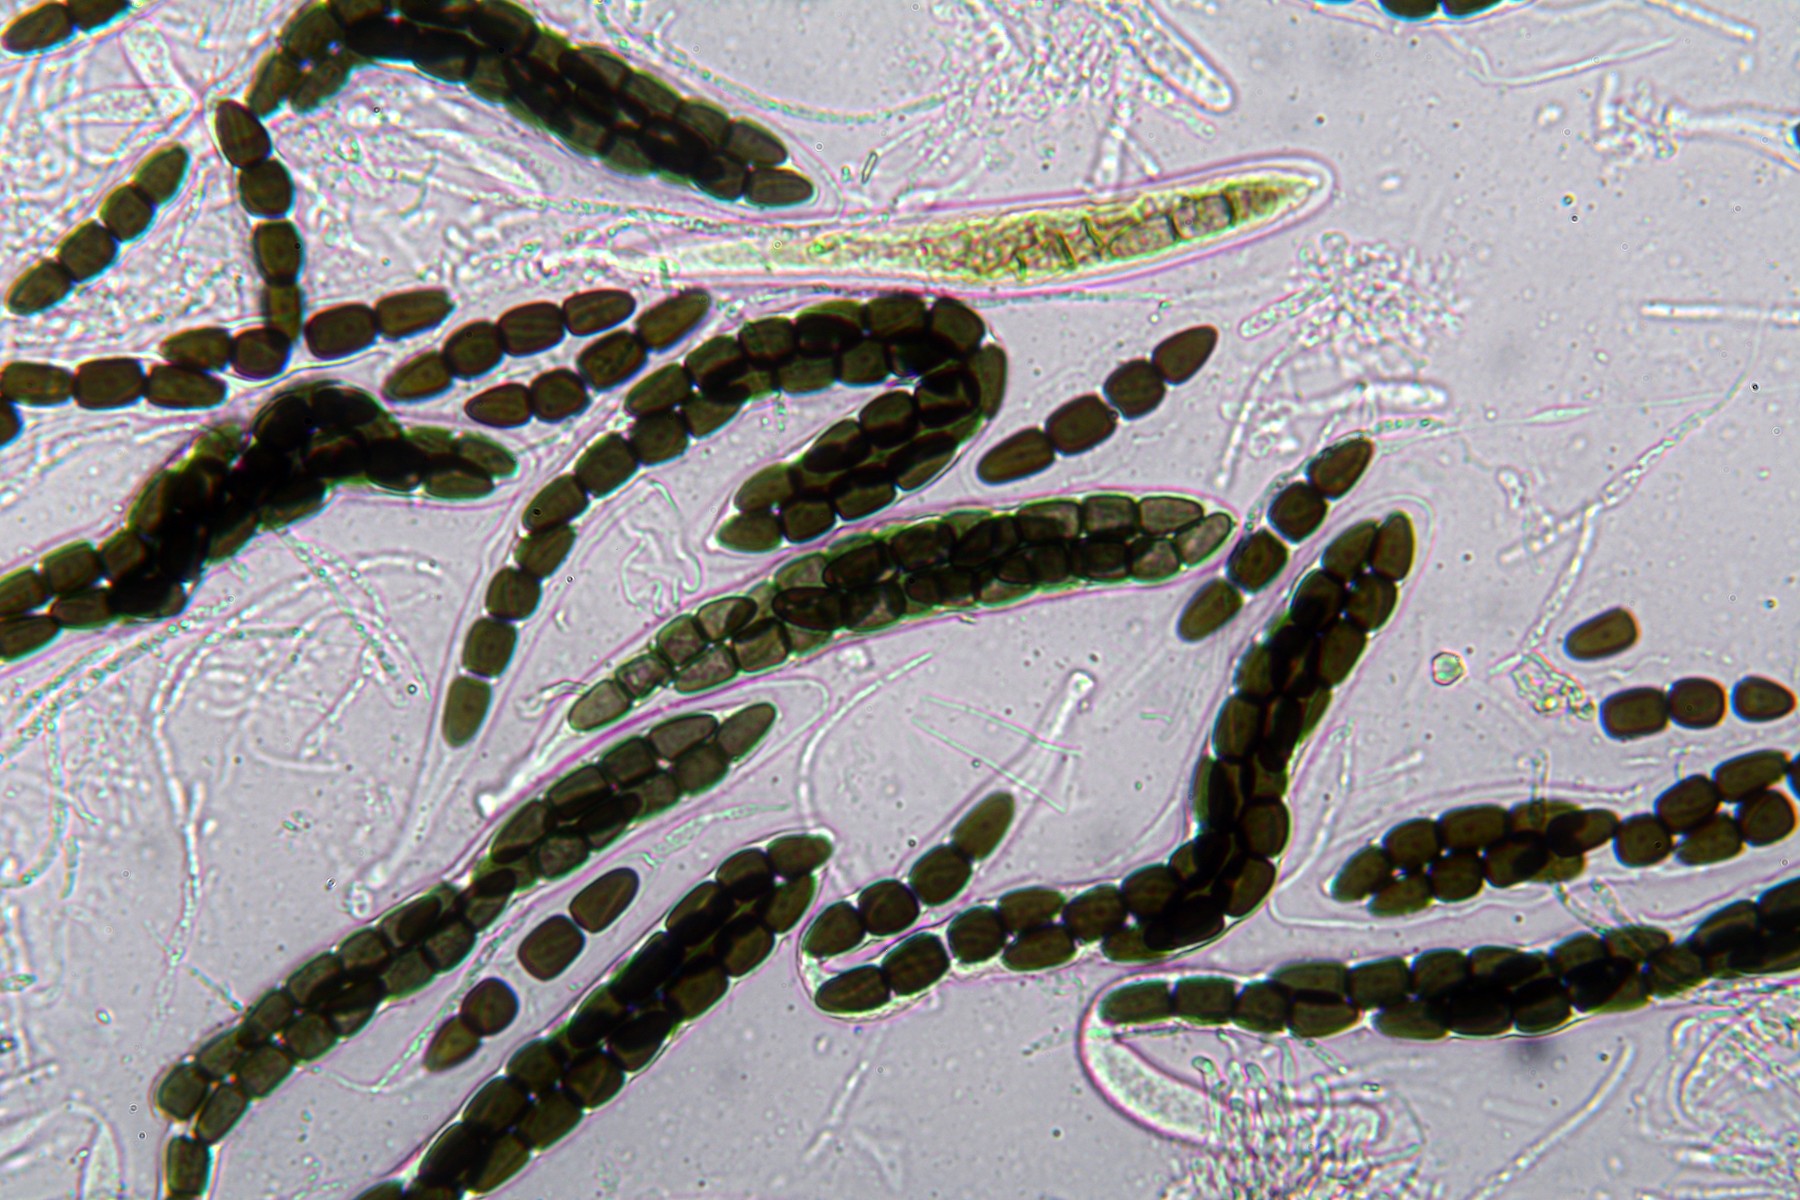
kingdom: Fungi
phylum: Ascomycota
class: Dothideomycetes
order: Pleosporales
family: Sporormiaceae
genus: Sporormiella
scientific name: Sporormiella intermedia
